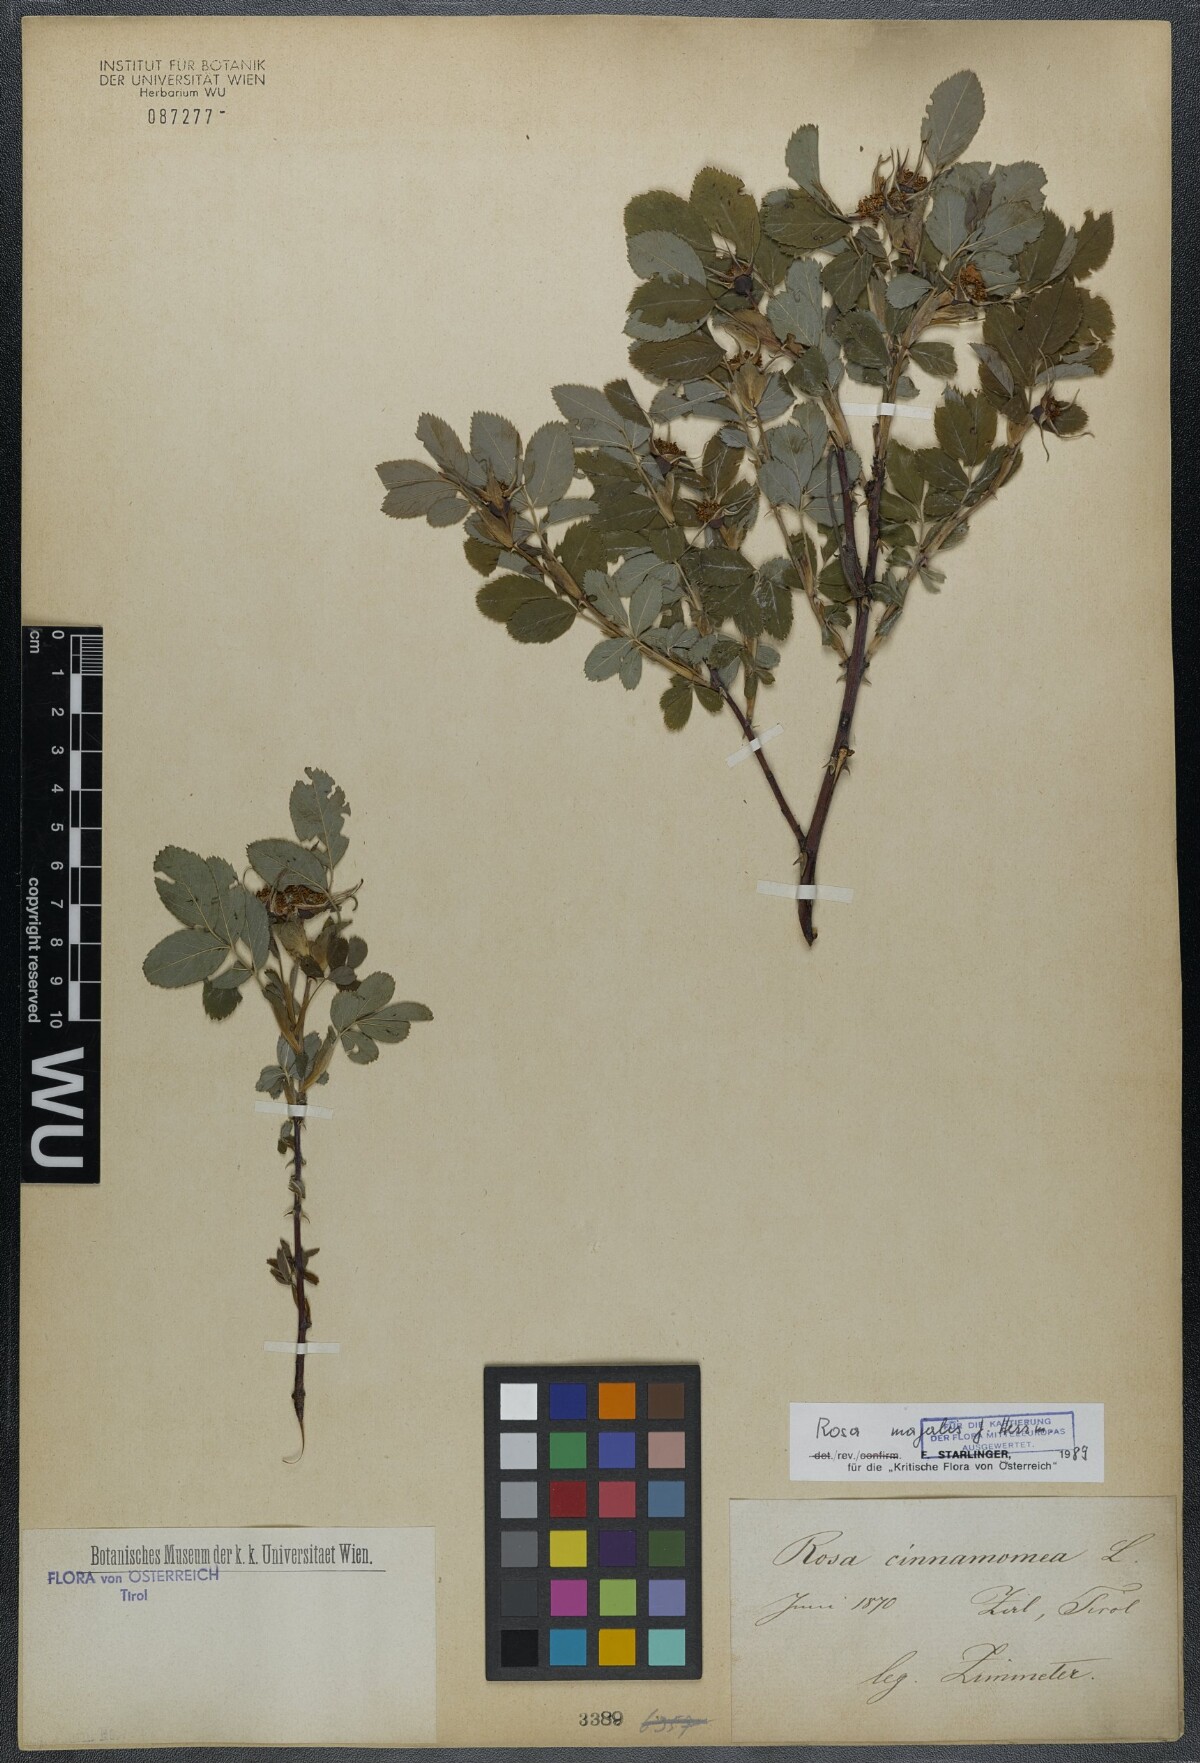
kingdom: Plantae
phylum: Tracheophyta
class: Magnoliopsida
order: Rosales
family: Rosaceae
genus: Rosa
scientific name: Rosa majalis
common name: Cinnamon rose
